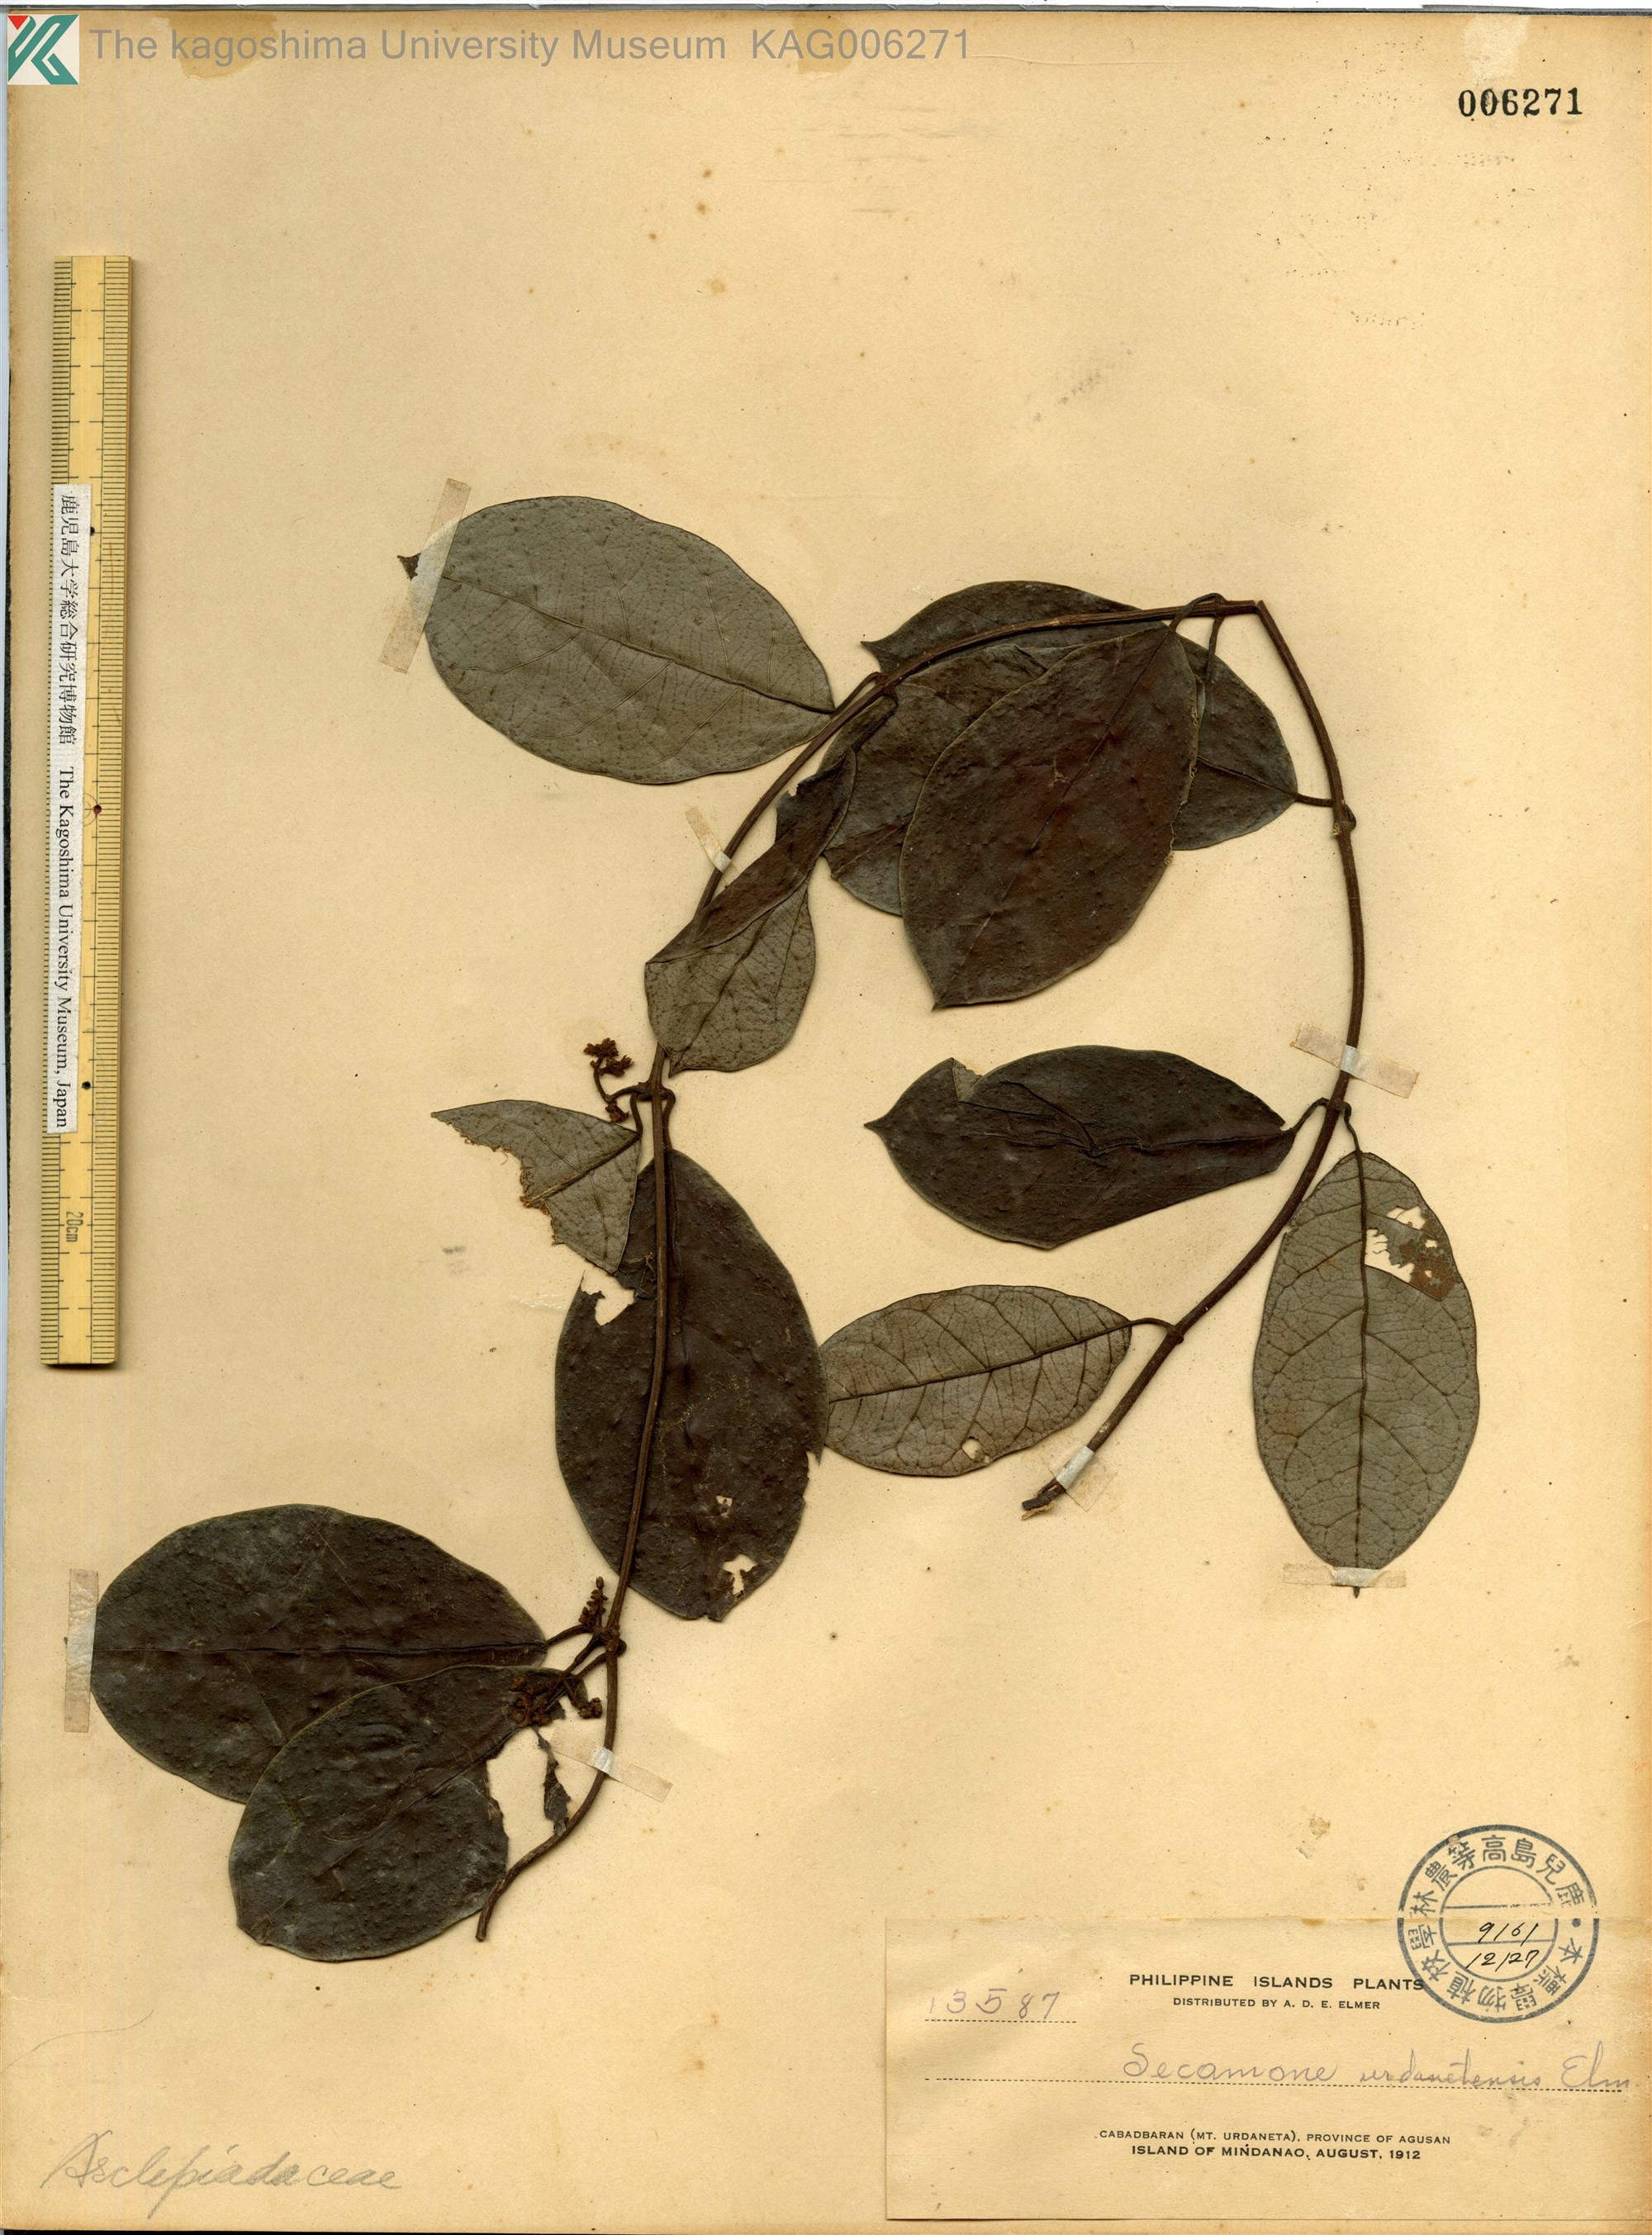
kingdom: Plantae
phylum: Tracheophyta
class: Magnoliopsida
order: Gentianales
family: Apocynaceae
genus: Toxocarpus
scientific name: Toxocarpus
